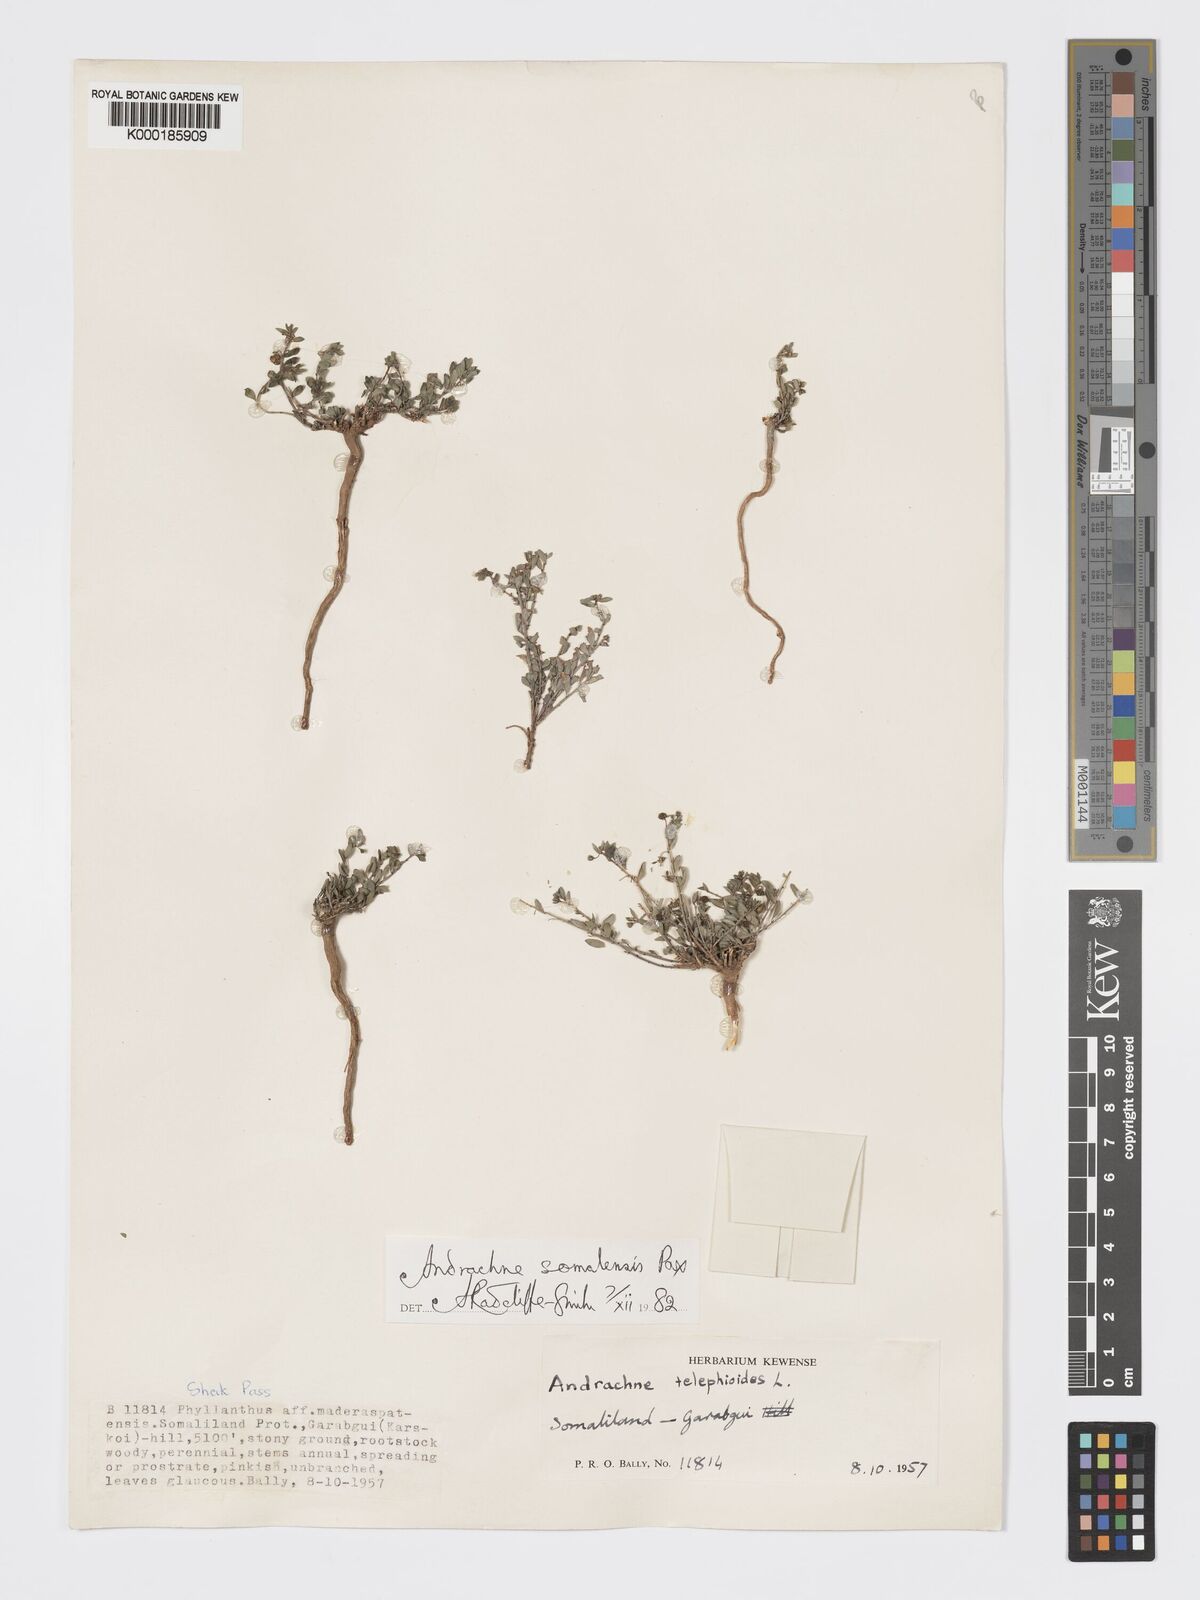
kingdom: Plantae
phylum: Tracheophyta
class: Magnoliopsida
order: Malpighiales
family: Phyllanthaceae
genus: Andrachne
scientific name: Andrachne schweinfurthii
